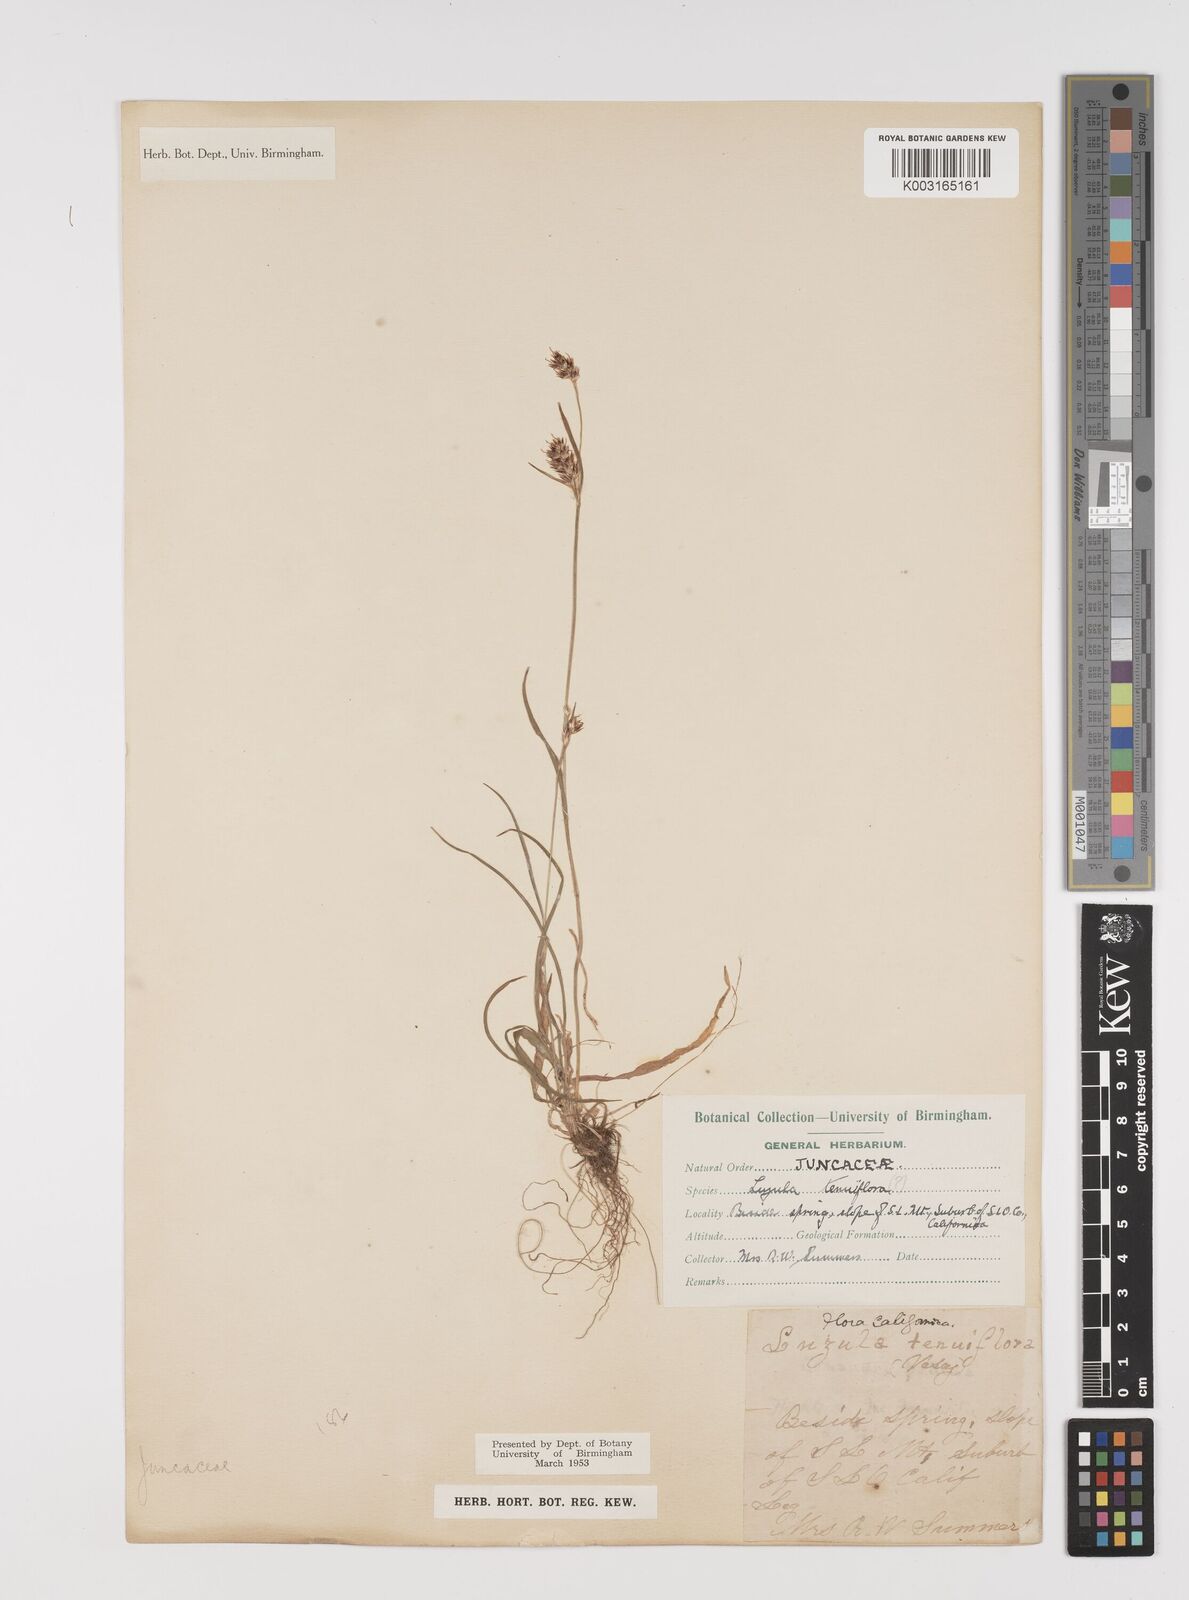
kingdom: Plantae
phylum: Tracheophyta
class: Liliopsida
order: Poales
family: Juncaceae
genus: Luzula
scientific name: Luzula
